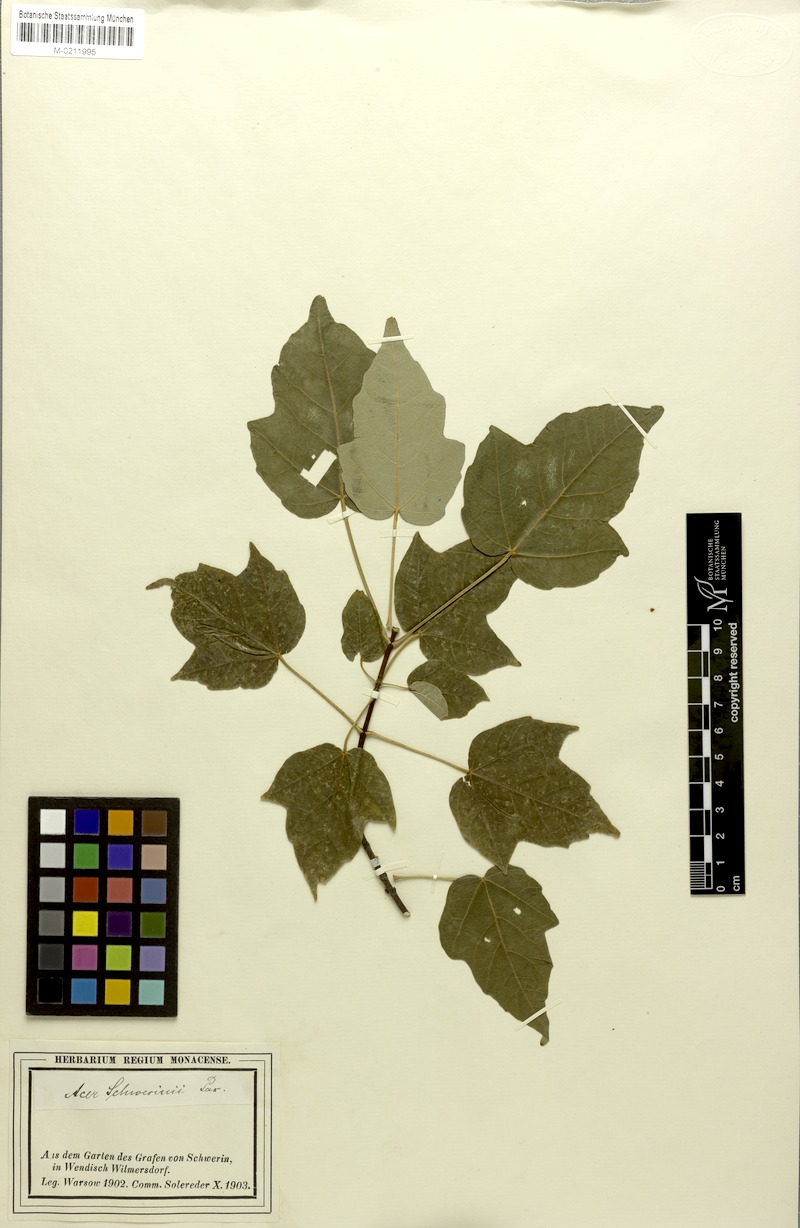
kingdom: Plantae
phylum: Tracheophyta
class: Magnoliopsida
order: Sapindales
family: Sapindaceae
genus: Acer
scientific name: Acer schwerinii
